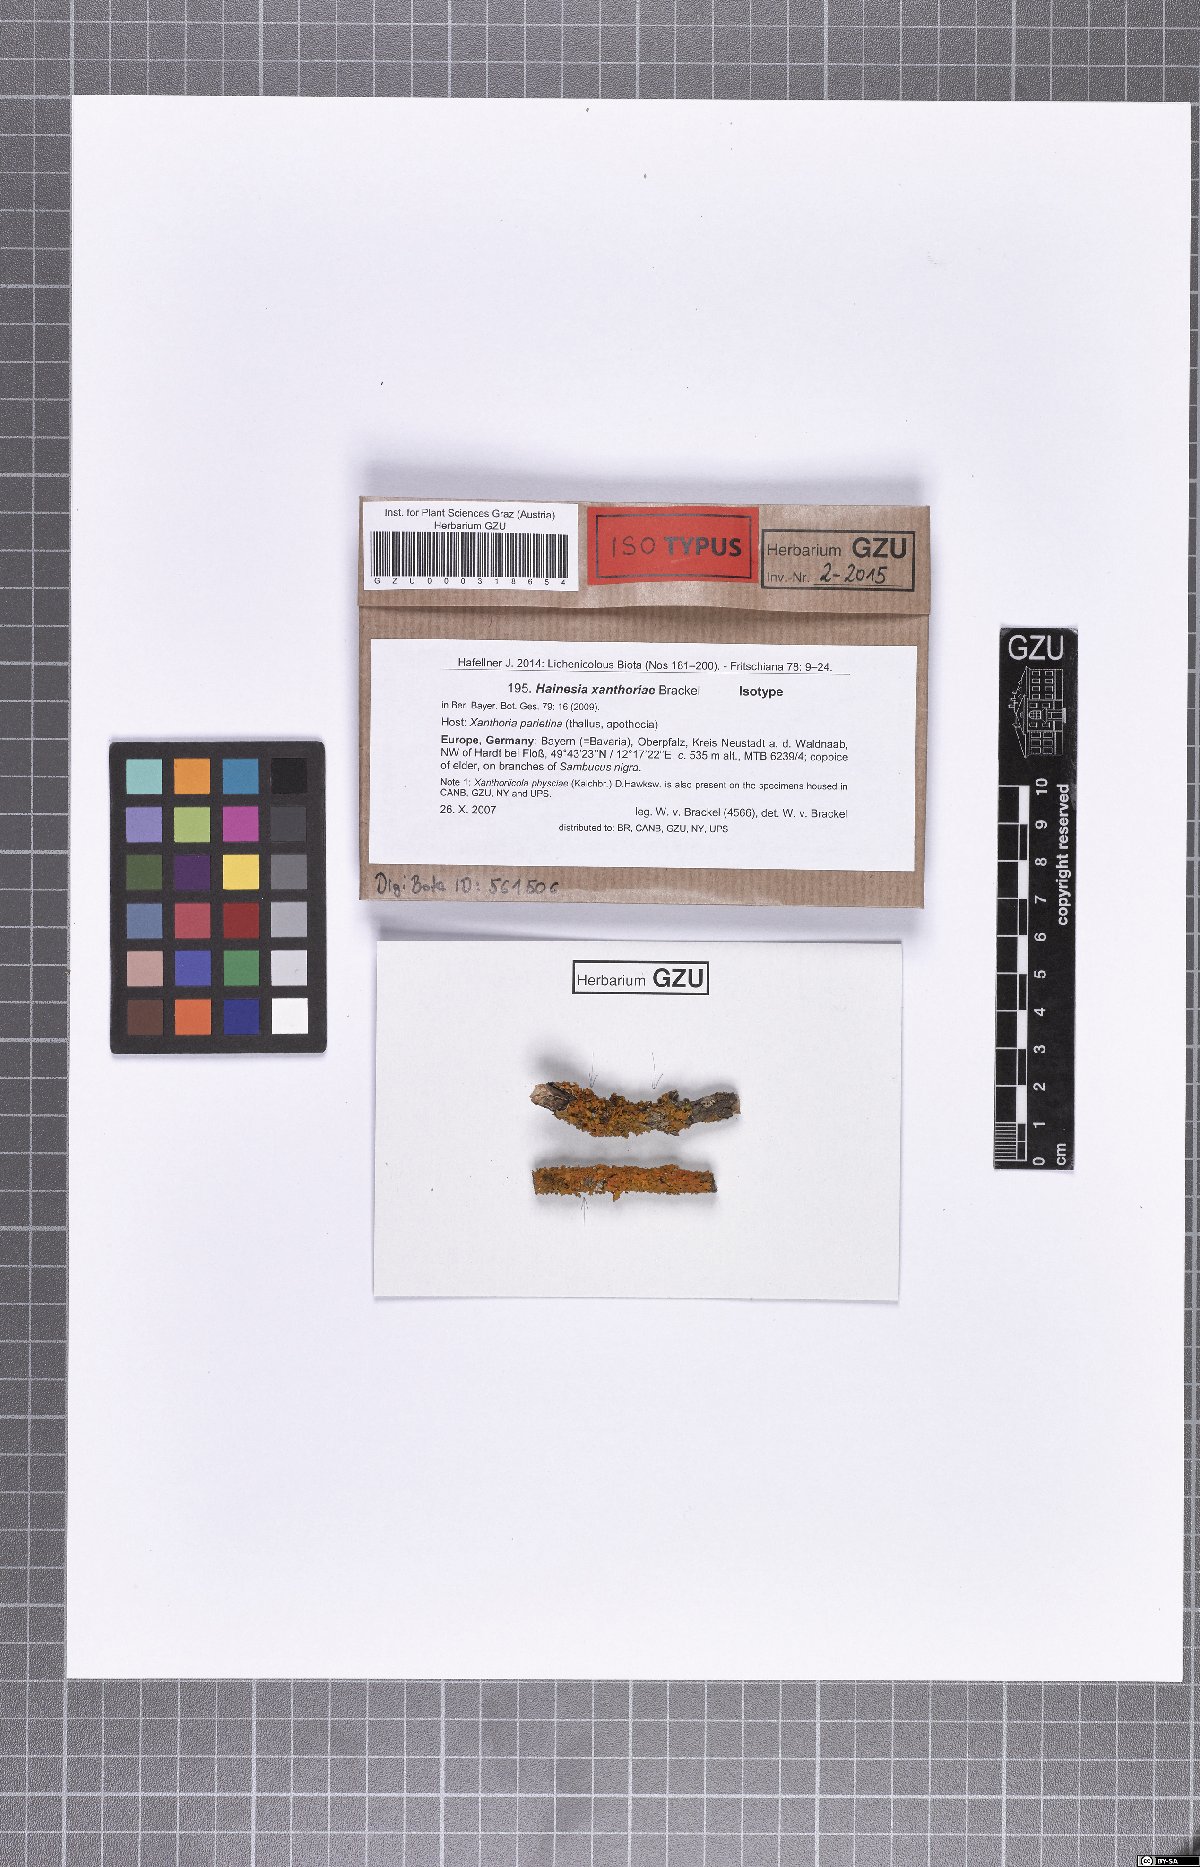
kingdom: Fungi
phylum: Ascomycota
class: Leotiomycetes
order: Leotiales
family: Mniaeciaceae
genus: Epithamnolia
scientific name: Epithamnolia xanthoriae
